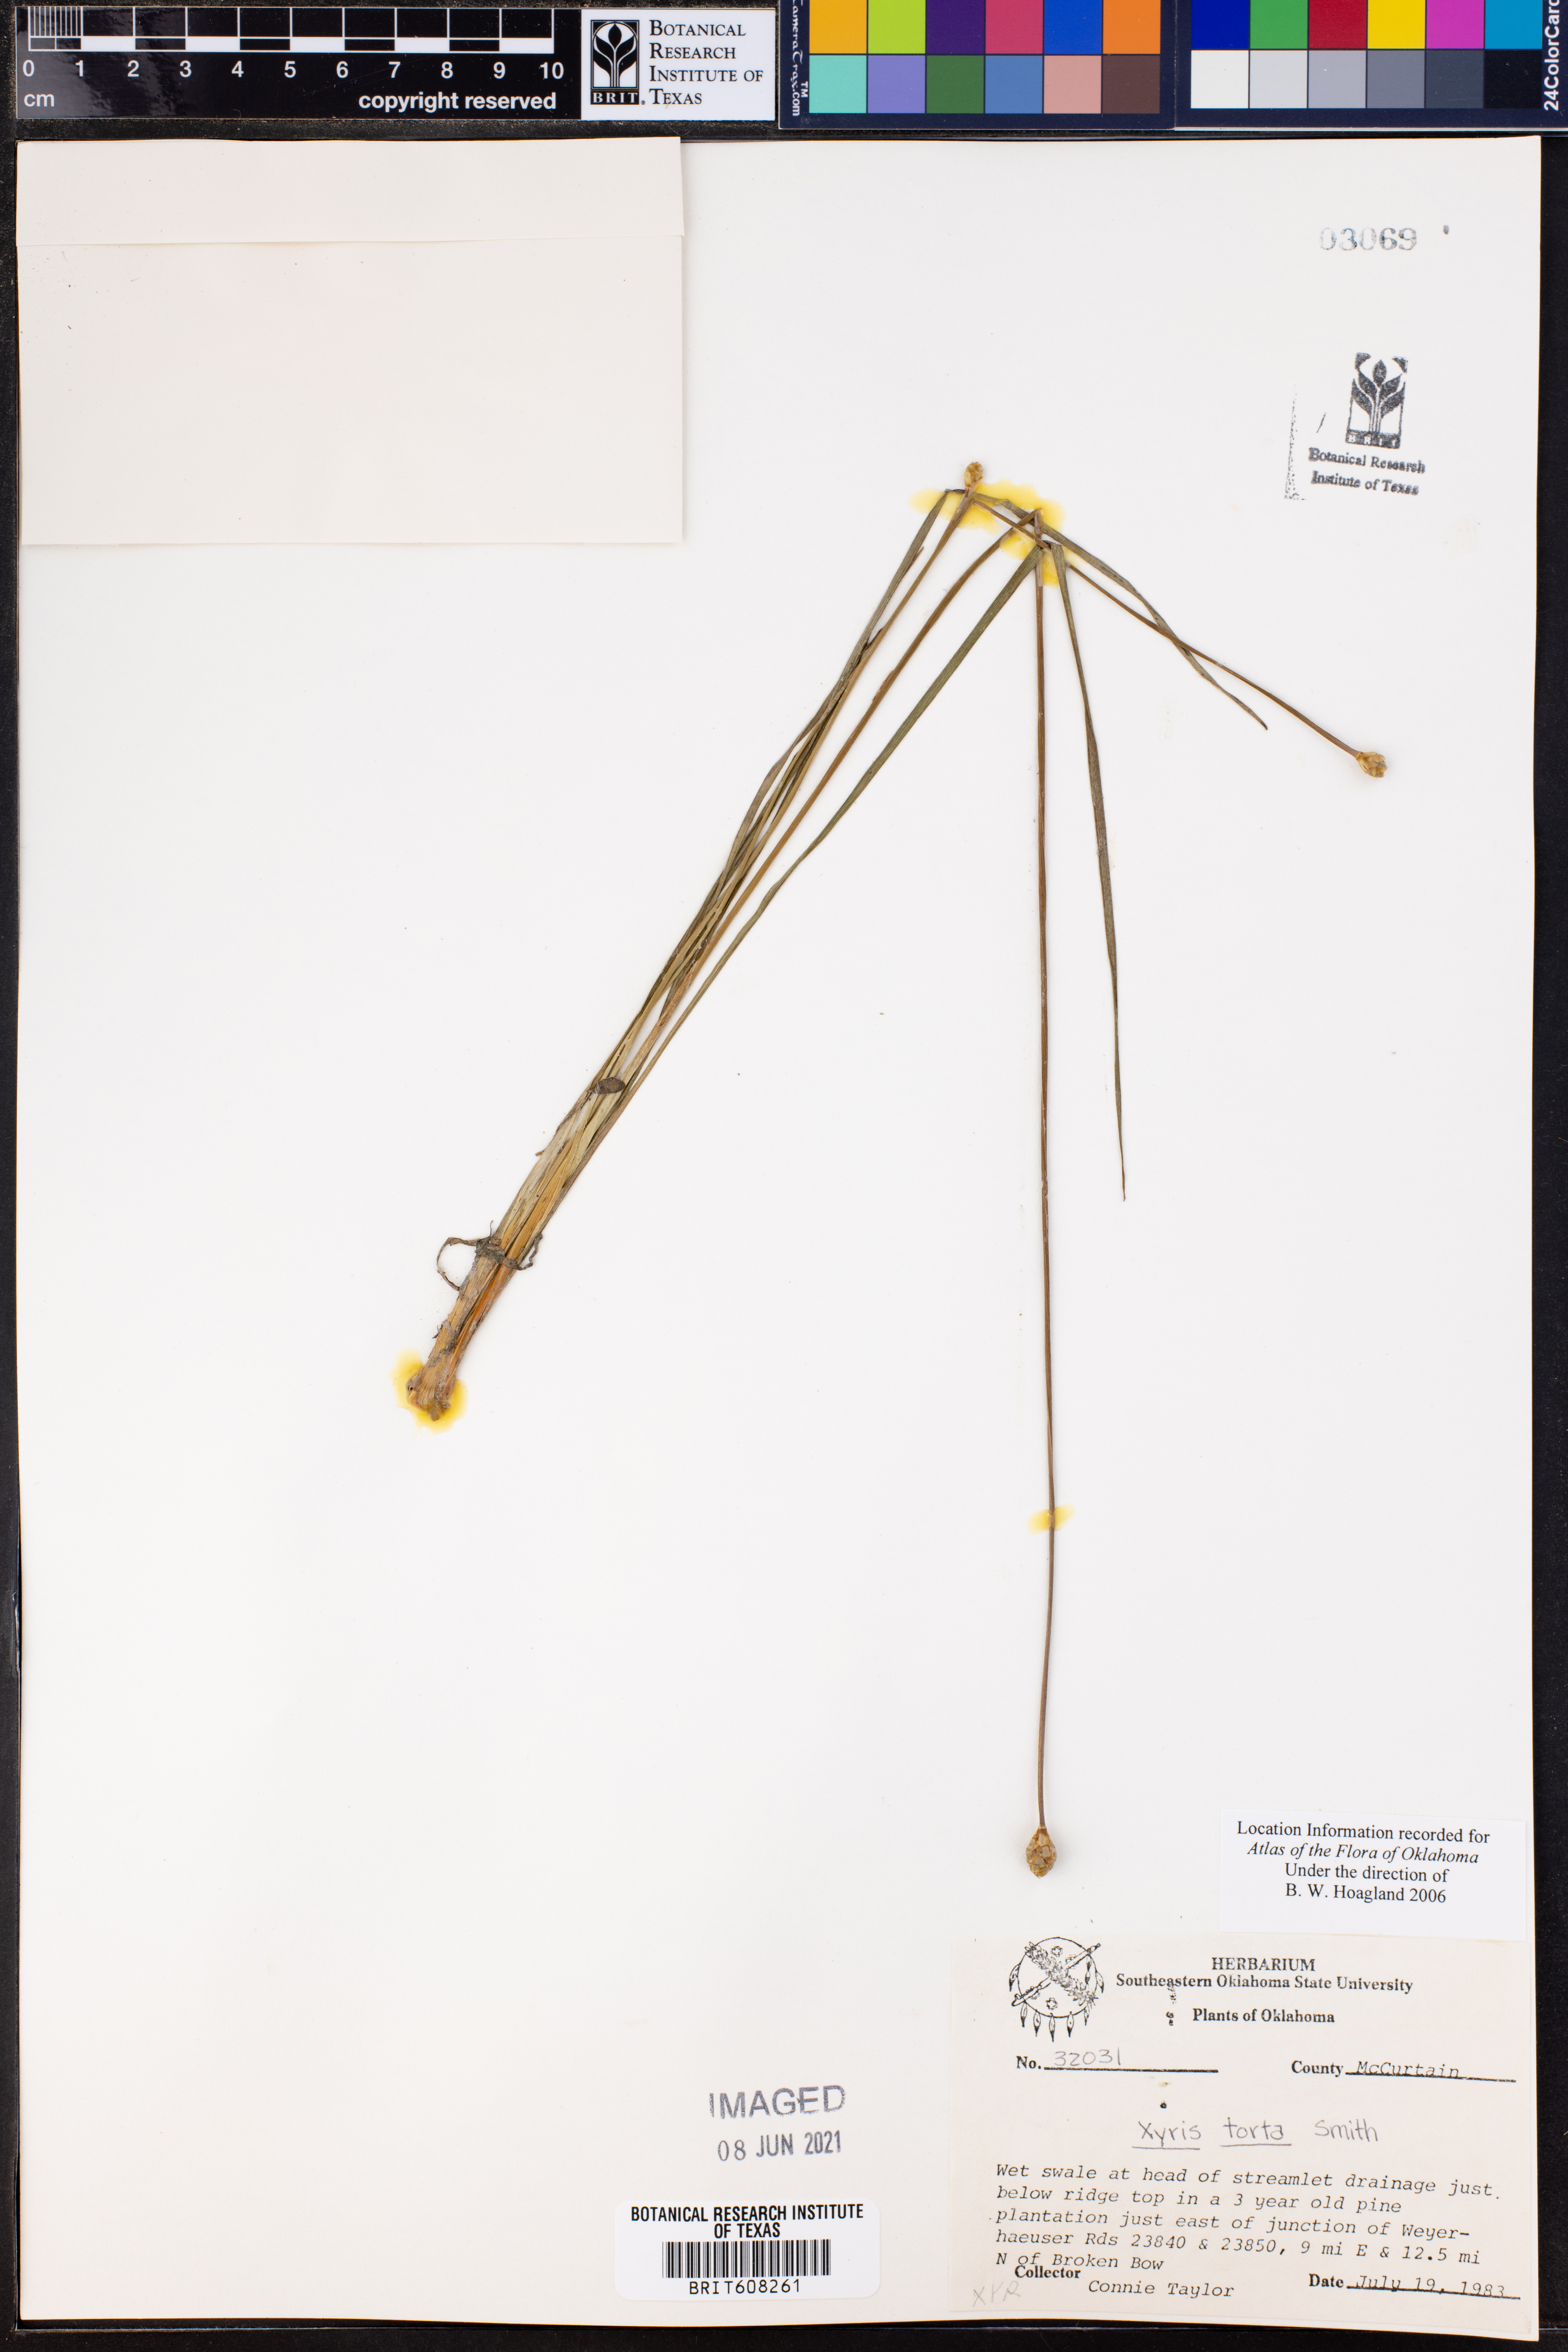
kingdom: Plantae
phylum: Tracheophyta
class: Liliopsida
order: Poales
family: Xyridaceae
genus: Xyris
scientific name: Xyris torta
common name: Common yelloweyed grass
